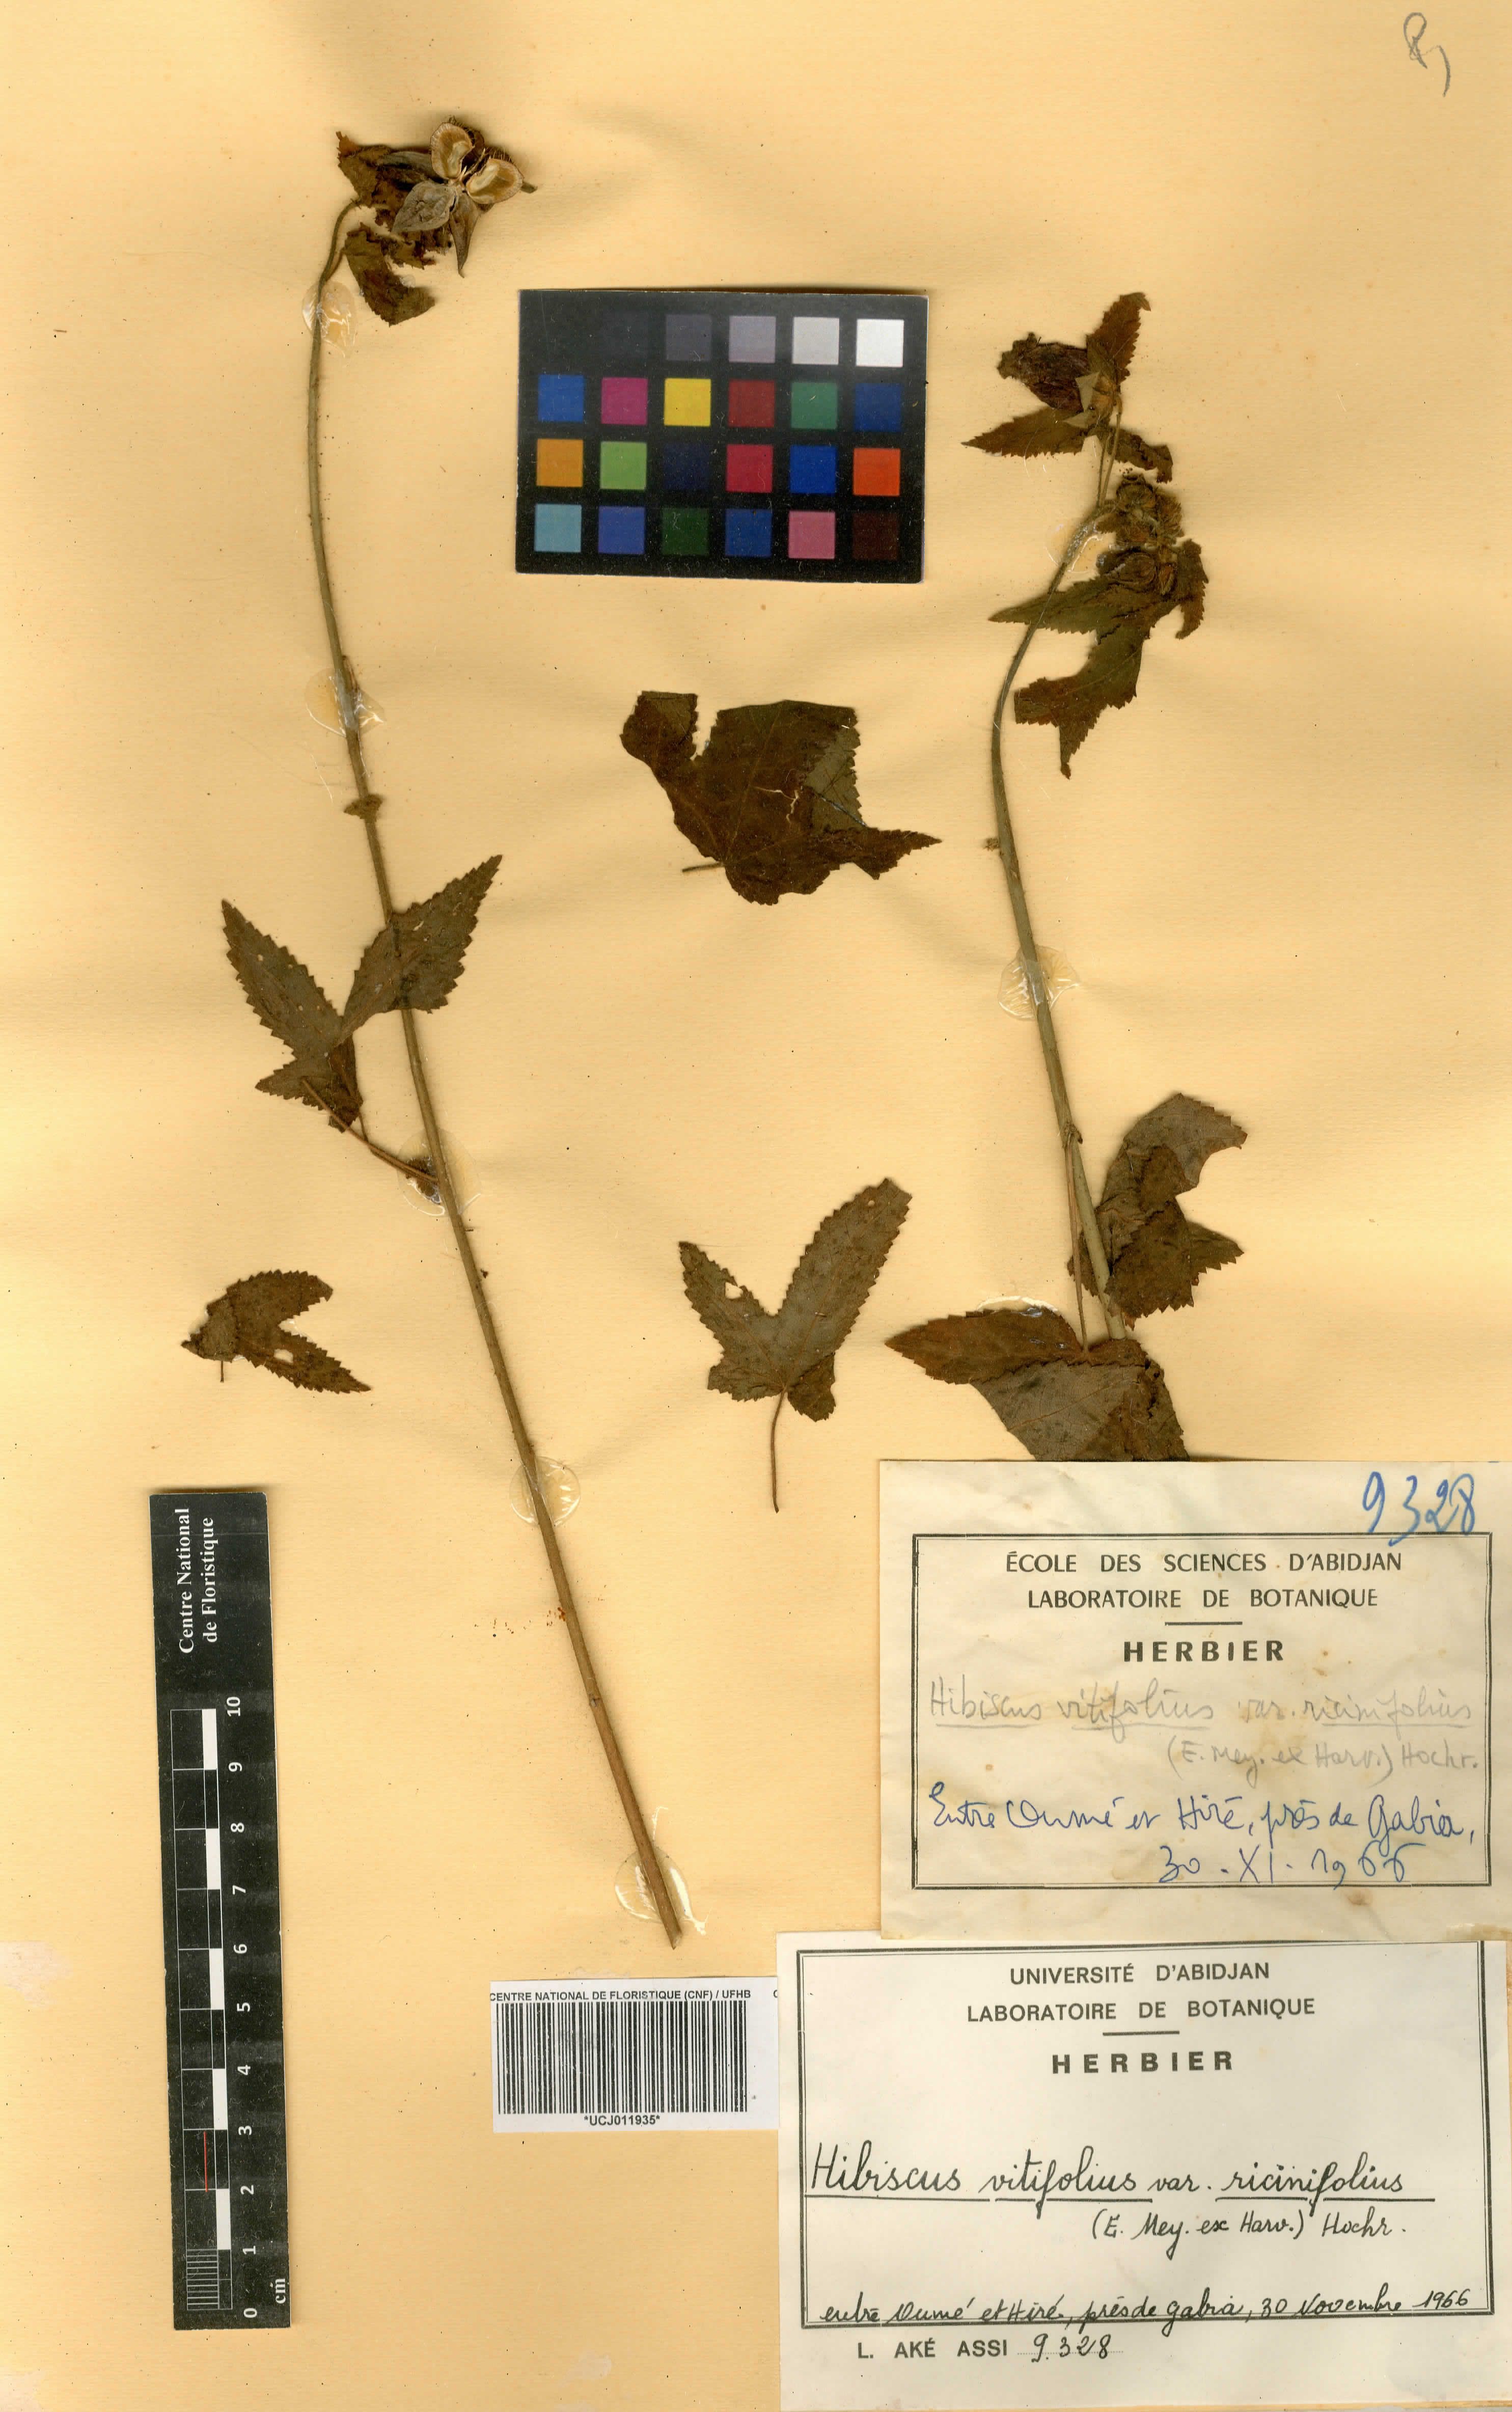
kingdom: Plantae
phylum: Tracheophyta
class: Magnoliopsida
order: Malvales
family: Malvaceae
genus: Hibiscus
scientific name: Hibiscus vitifolius
